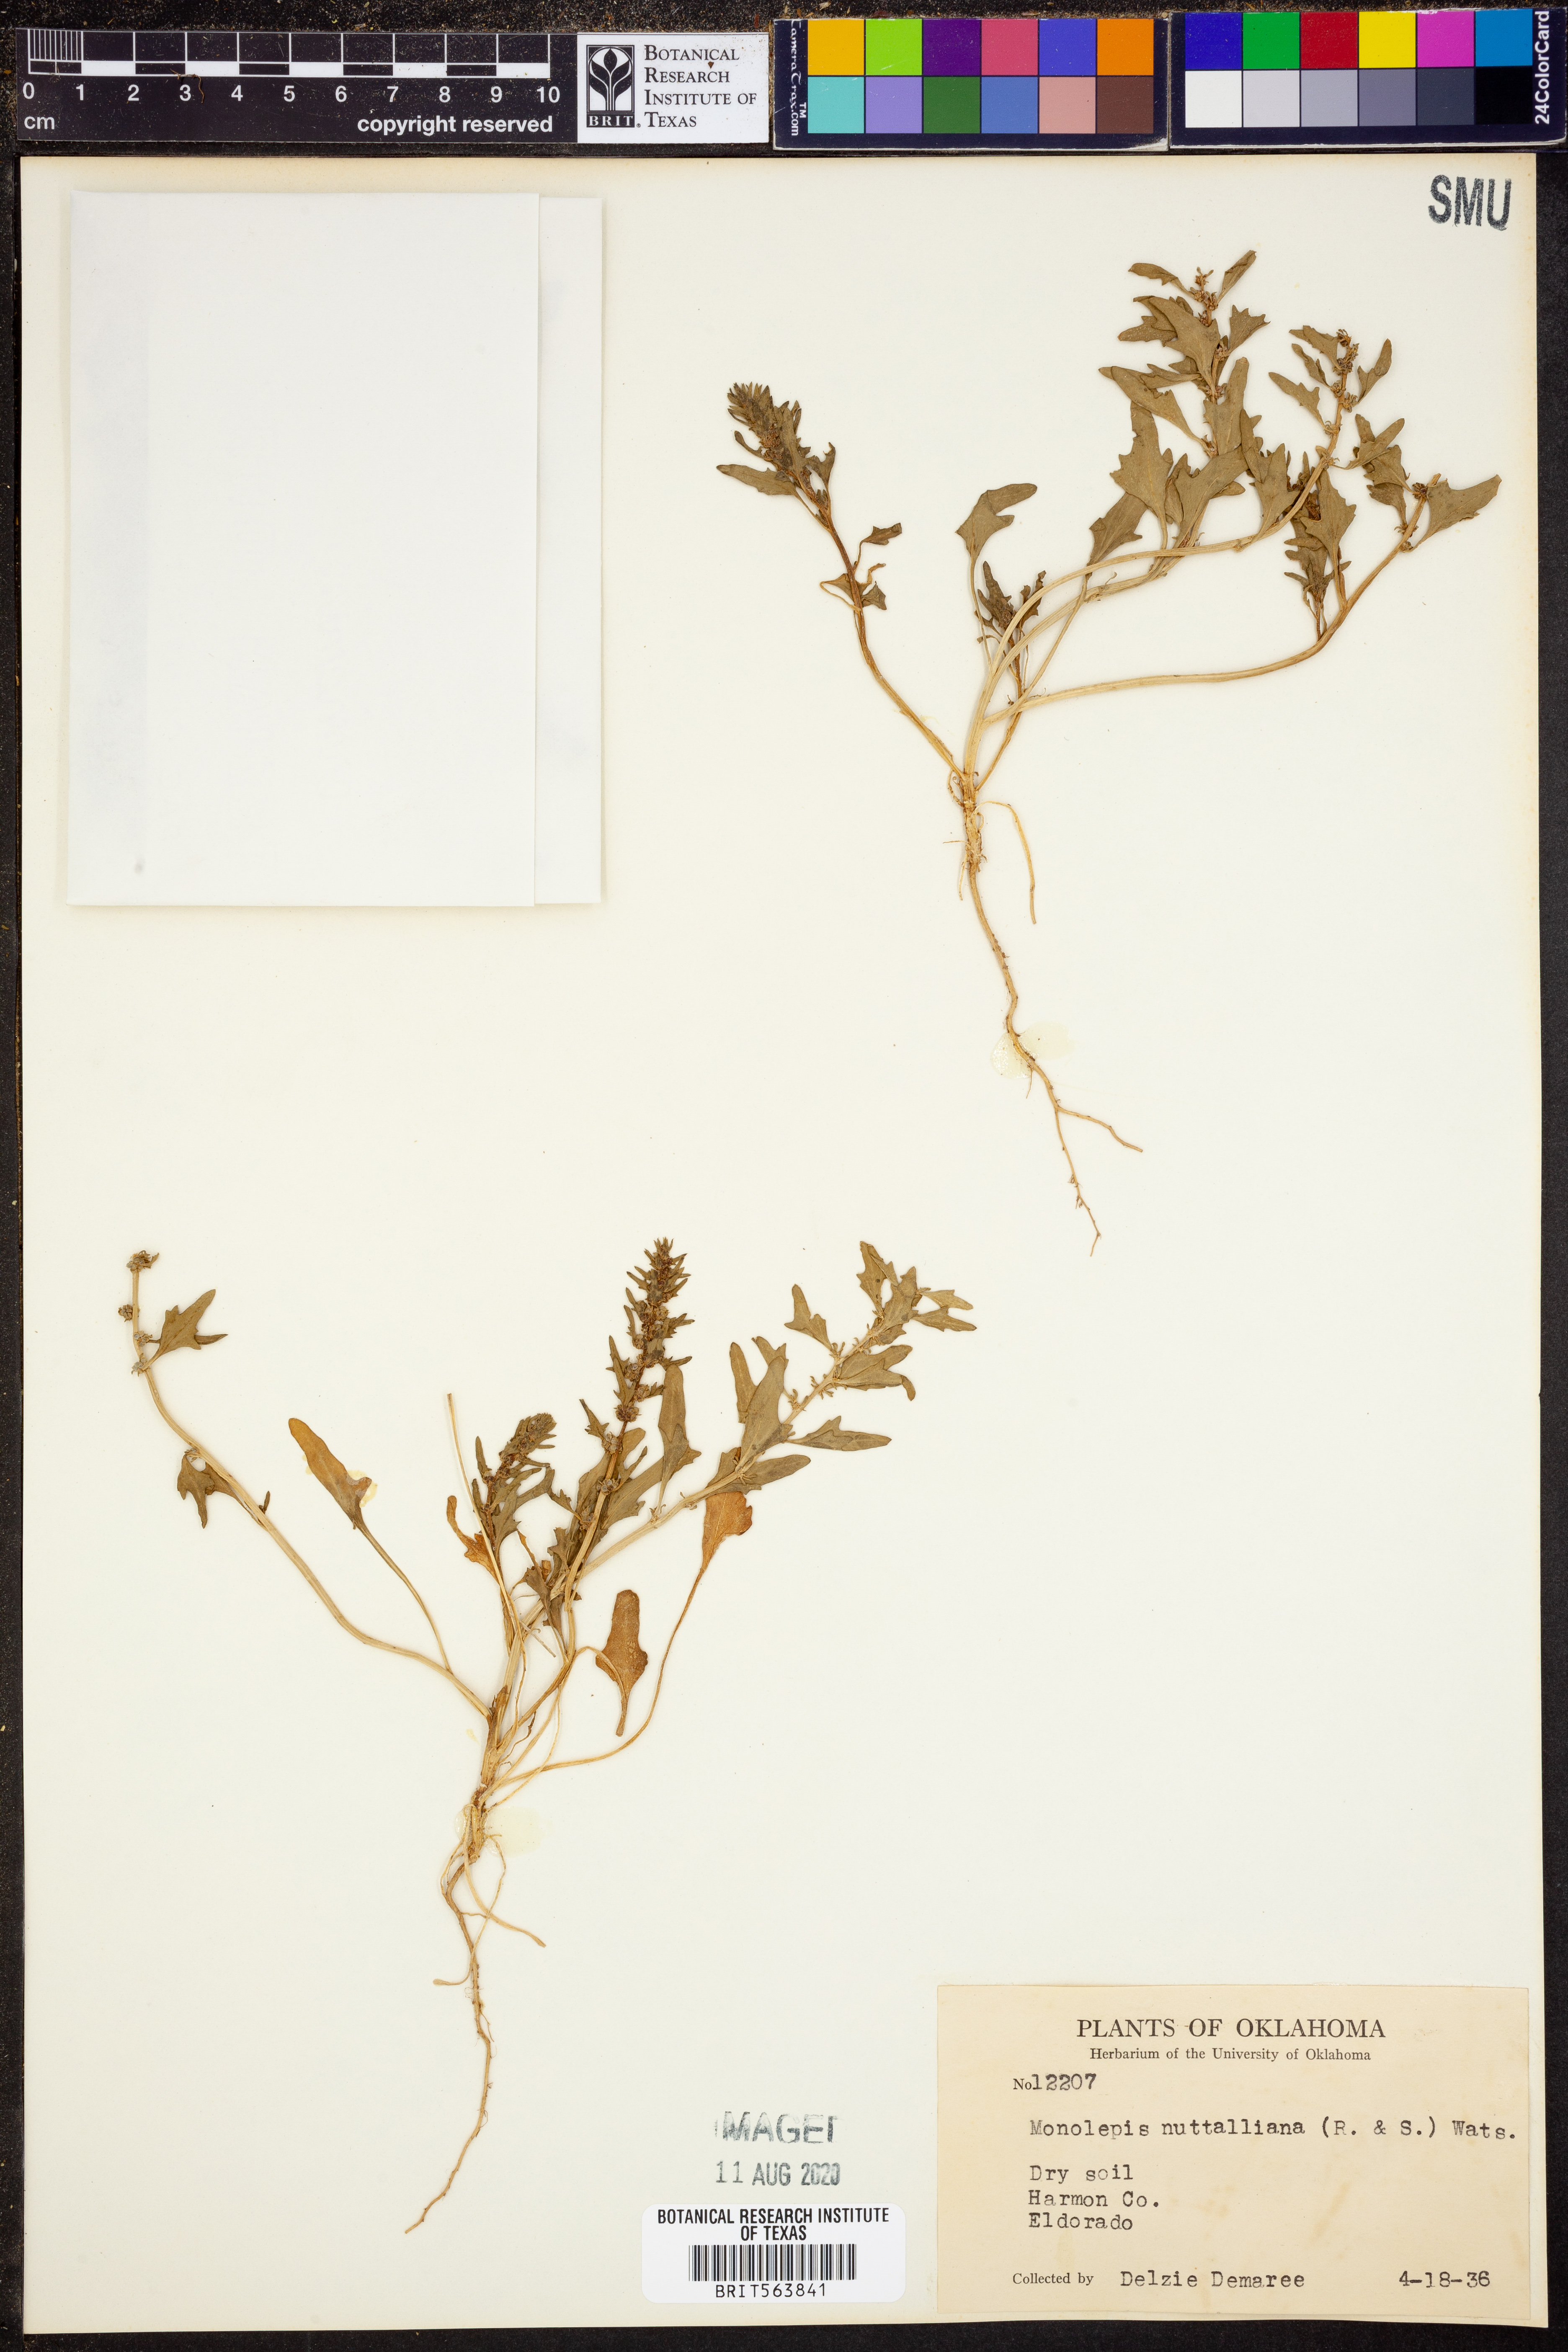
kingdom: Plantae
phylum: Tracheophyta
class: Magnoliopsida
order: Caryophyllales
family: Amaranthaceae
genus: Blitum
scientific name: Blitum nuttallianum
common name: Poverty-weed
